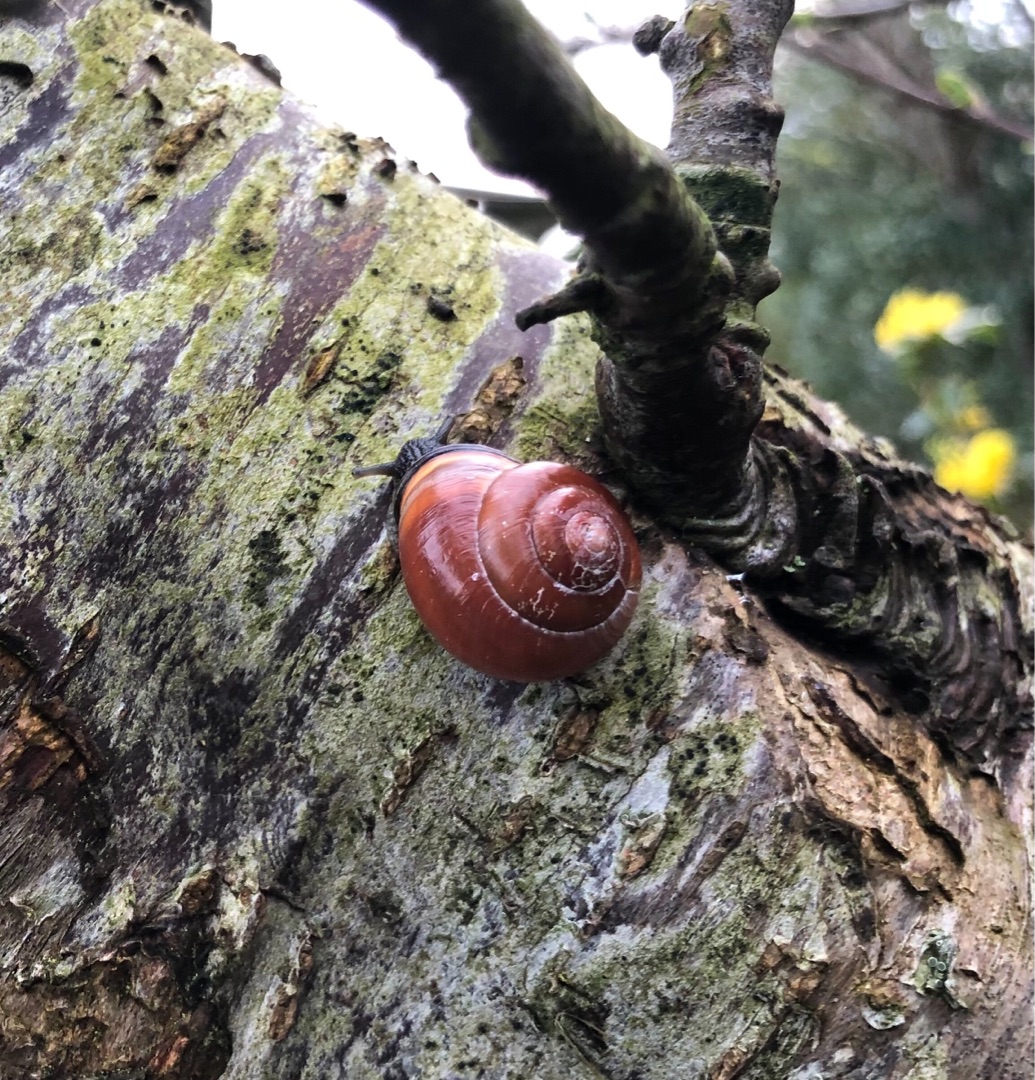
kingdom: Animalia
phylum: Mollusca
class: Gastropoda
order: Stylommatophora
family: Helicidae
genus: Cepaea
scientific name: Cepaea nemoralis
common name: Lundsnegl
